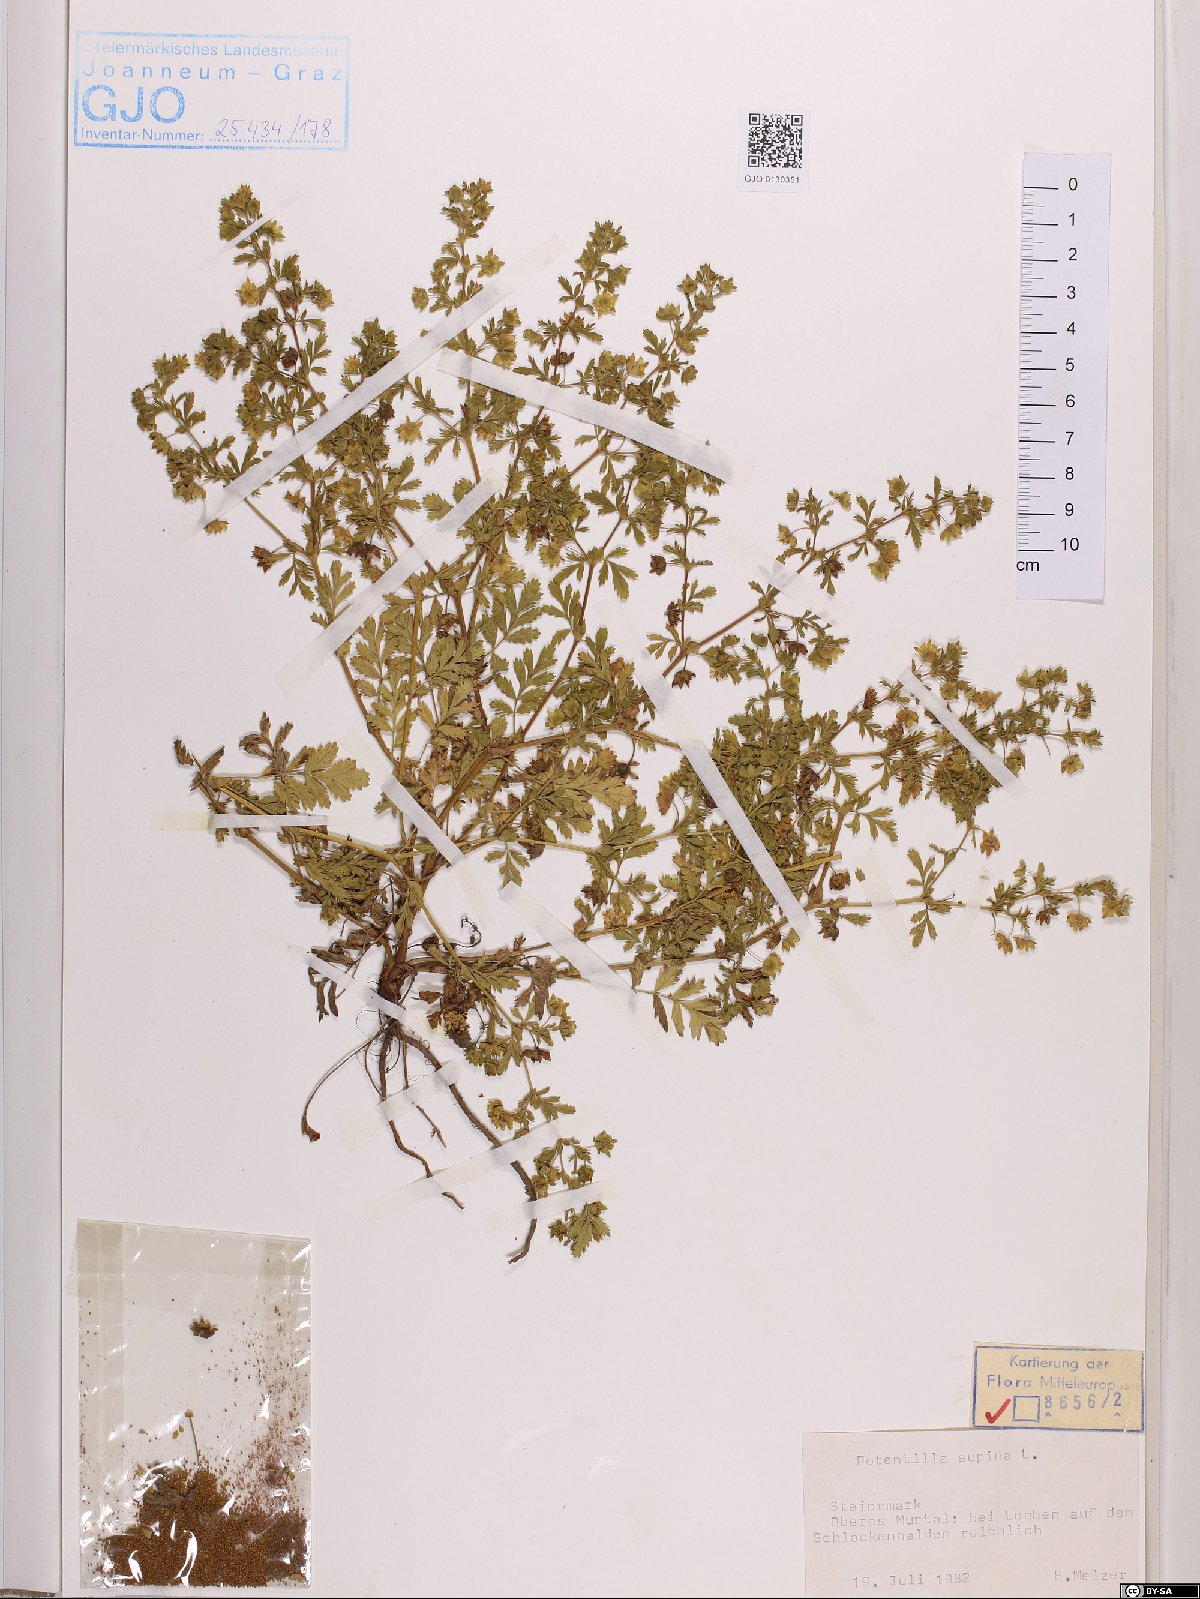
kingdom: Plantae
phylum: Tracheophyta
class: Magnoliopsida
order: Rosales
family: Rosaceae
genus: Potentilla
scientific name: Potentilla supina
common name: Prostrate cinquefoil
